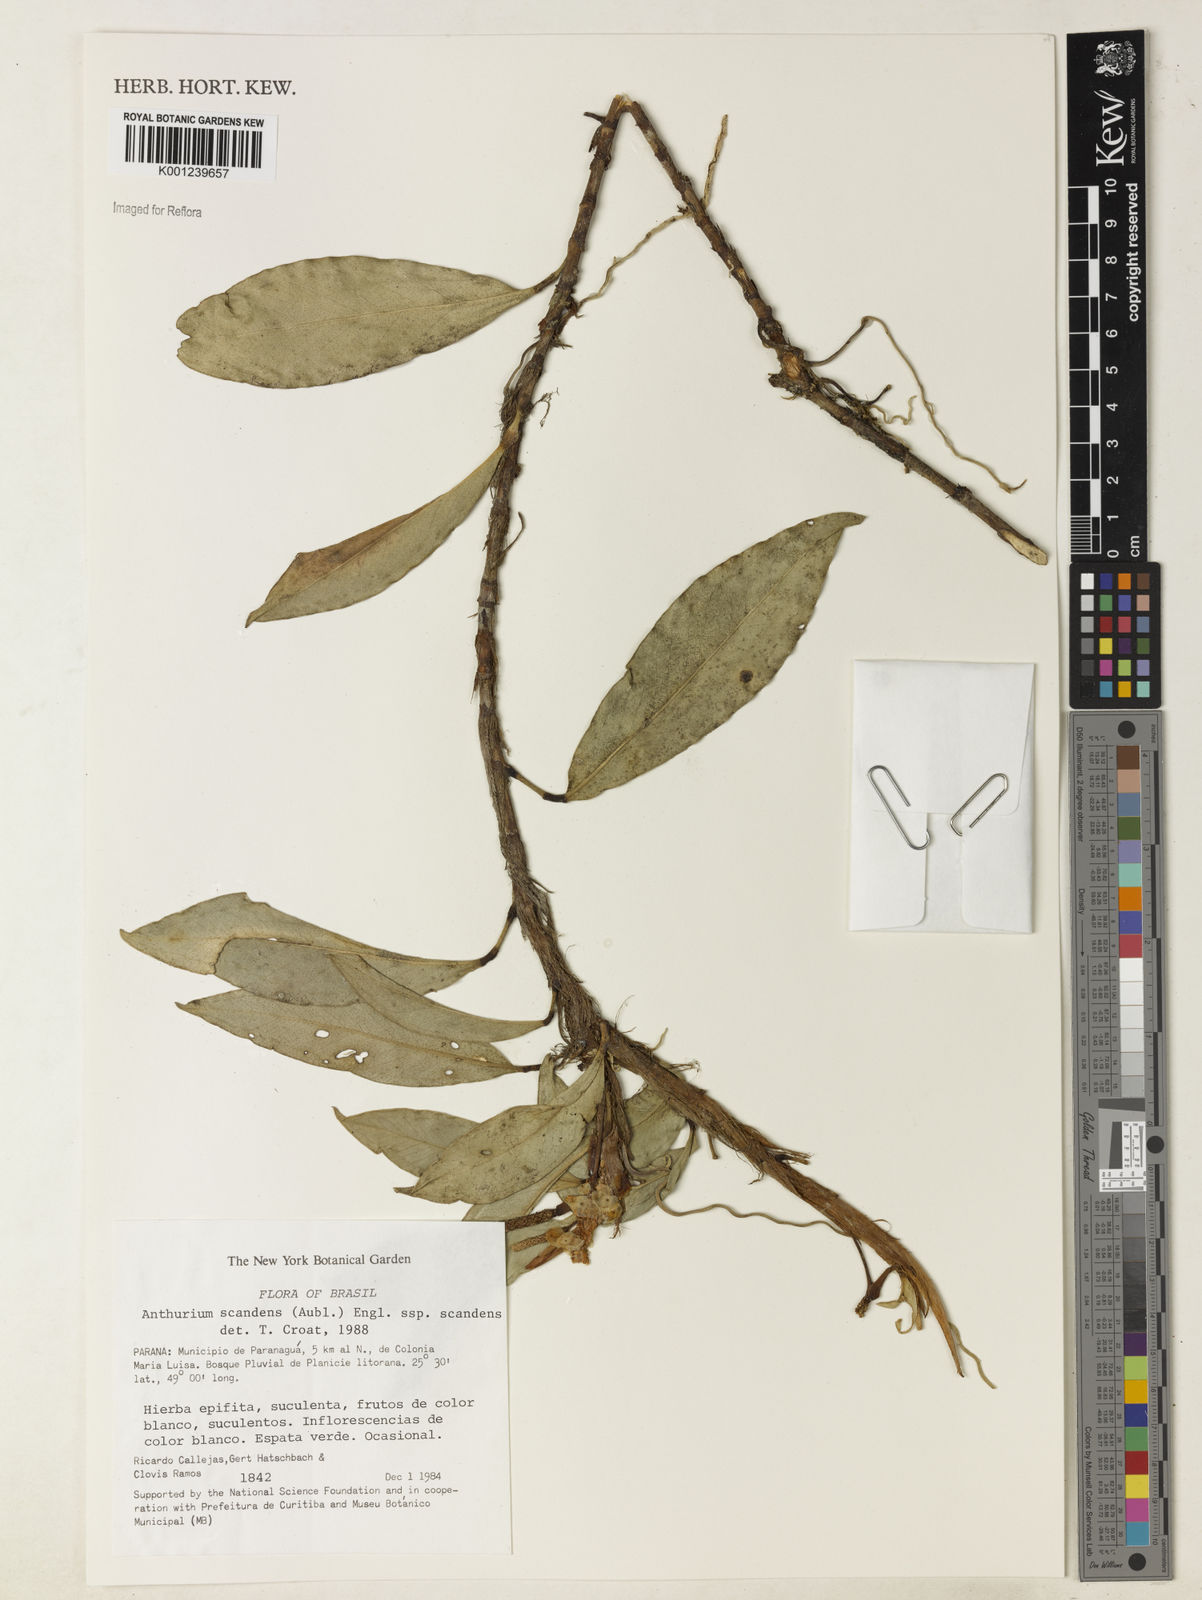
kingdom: Plantae
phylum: Tracheophyta
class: Liliopsida
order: Alismatales
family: Araceae
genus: Anthurium
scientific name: Anthurium scandens
